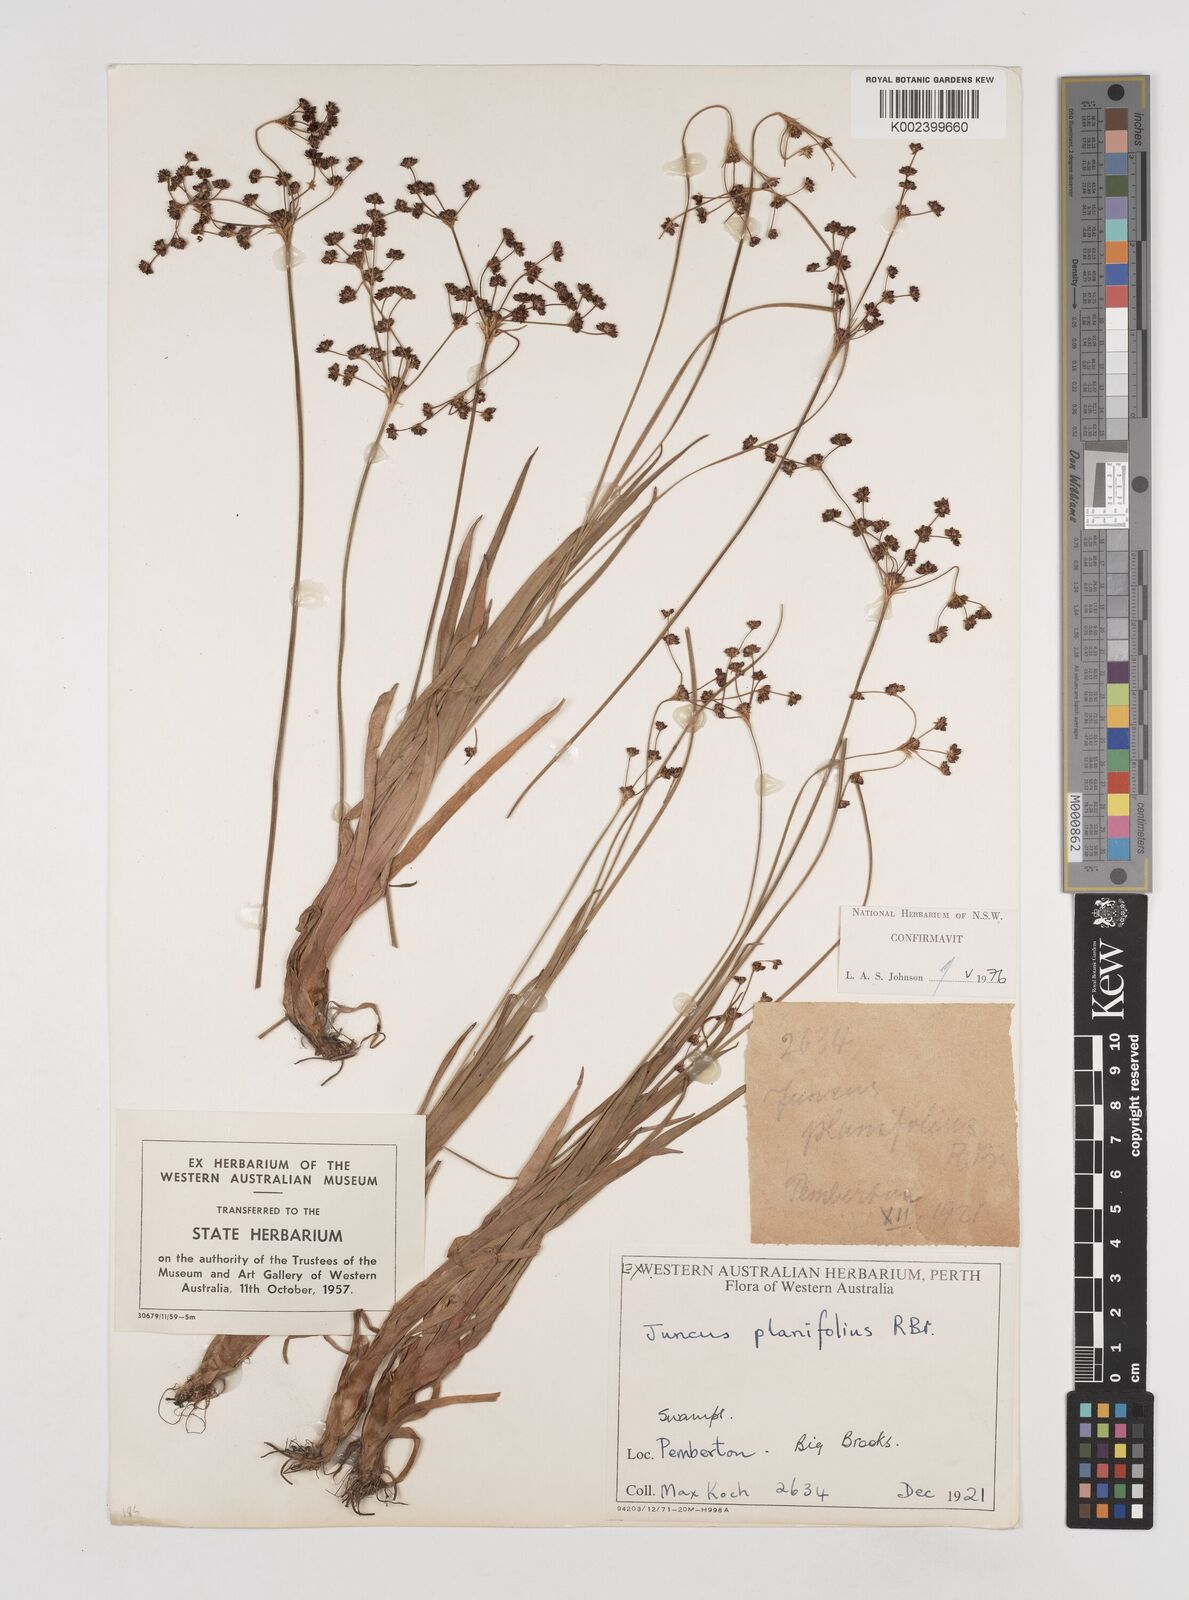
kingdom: Plantae
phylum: Tracheophyta
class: Liliopsida
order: Poales
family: Juncaceae
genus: Juncus
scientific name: Juncus planifolius
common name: Broadleaf rush
